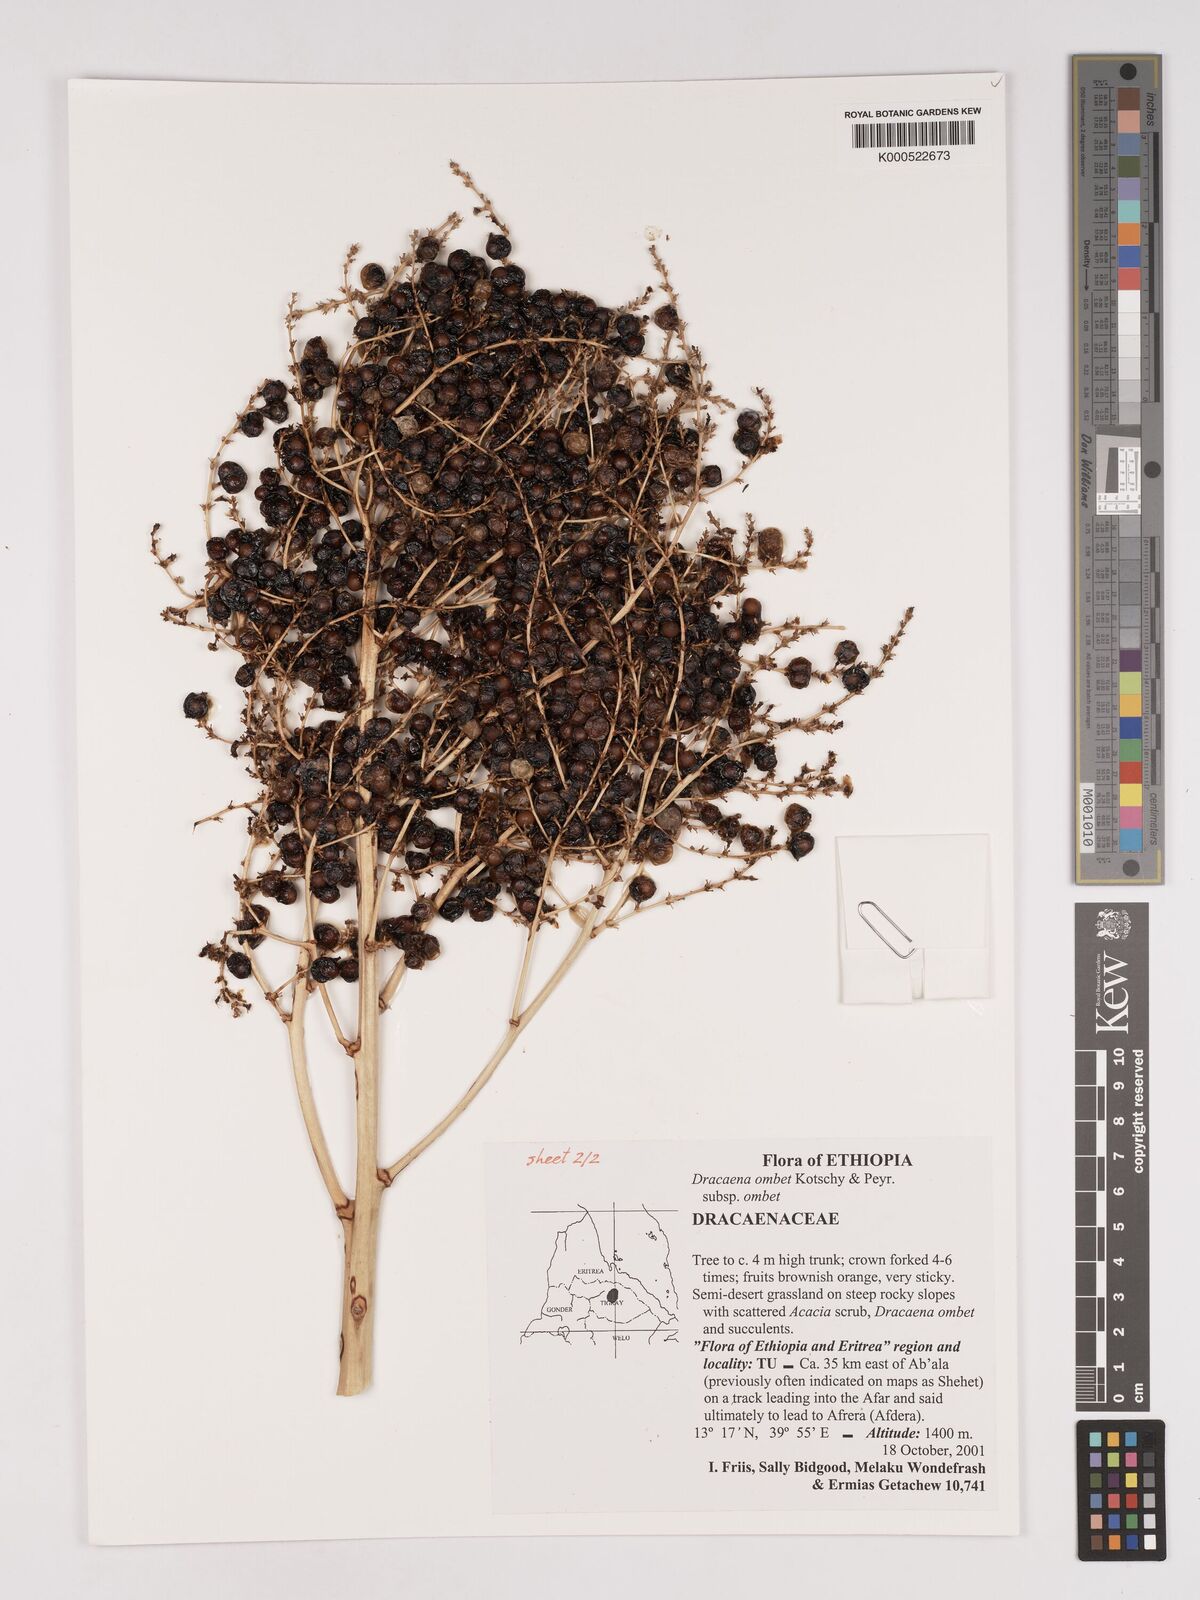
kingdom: Plantae
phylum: Tracheophyta
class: Liliopsida
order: Asparagales
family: Asparagaceae
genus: Dracaena
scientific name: Dracaena ombet
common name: Gabal elba dragon tree
